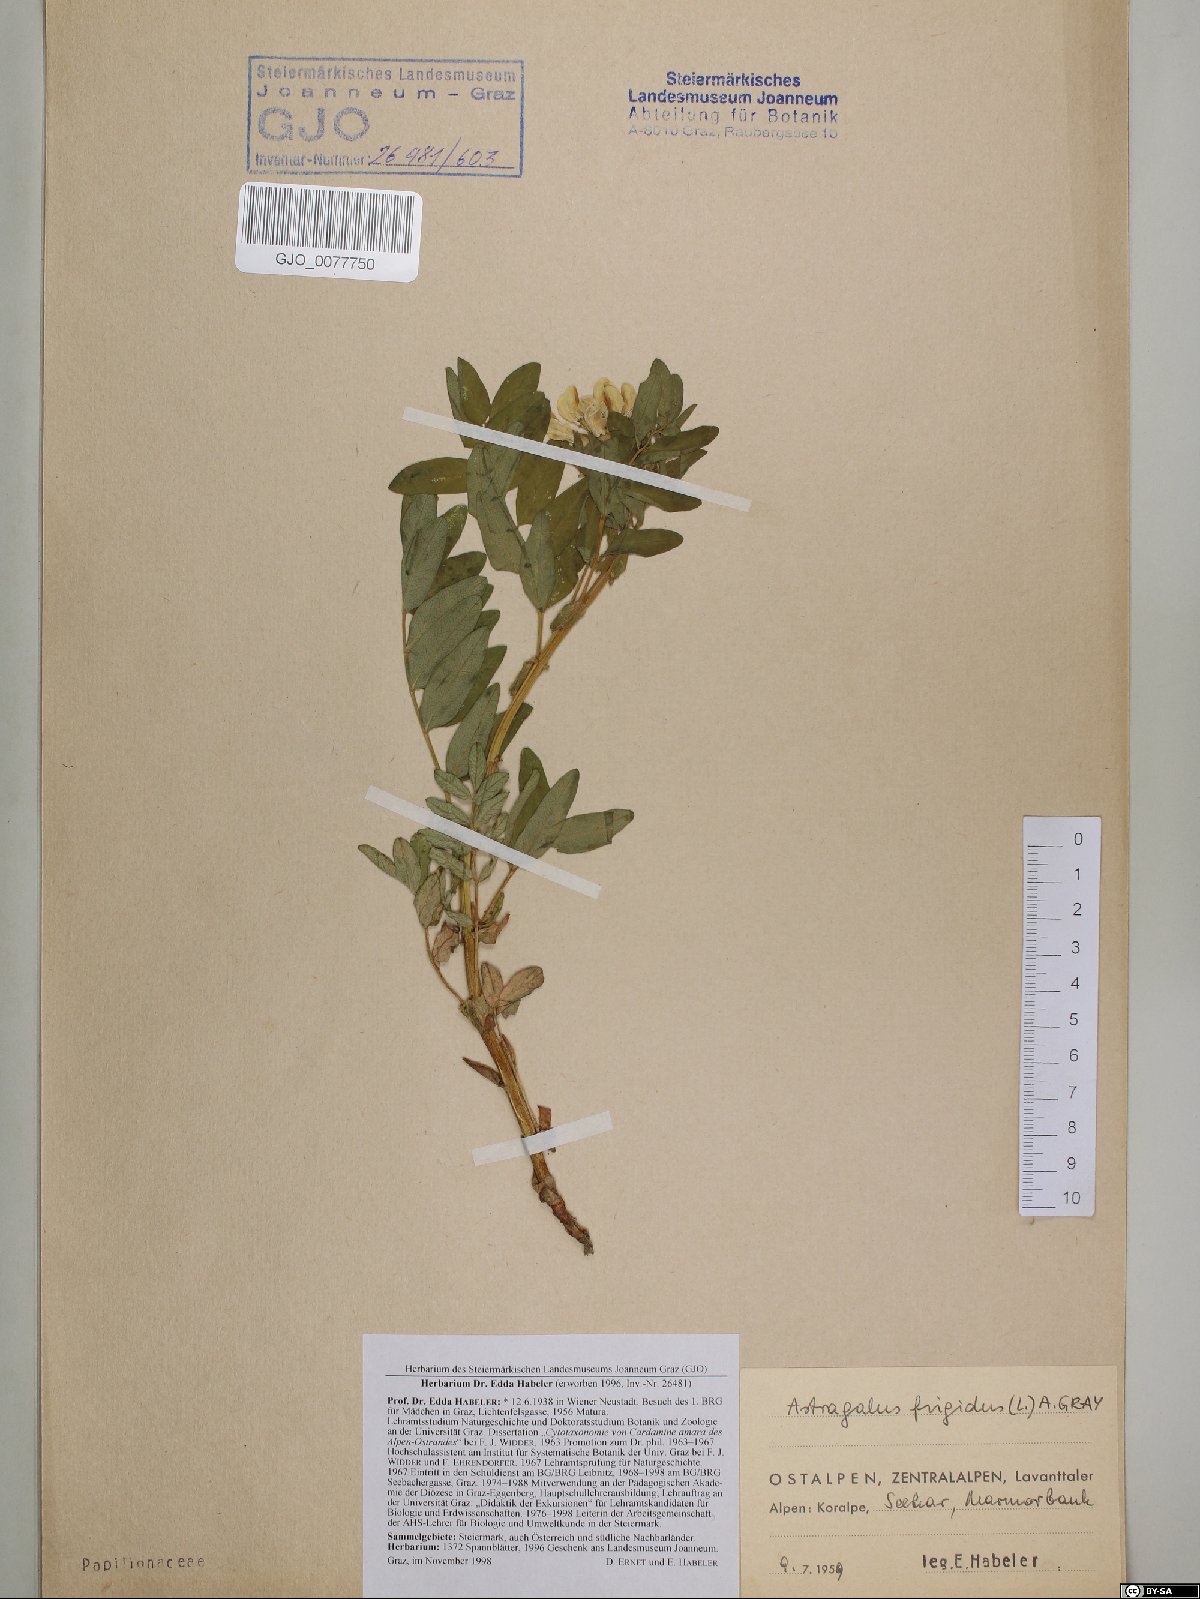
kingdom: Plantae
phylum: Tracheophyta
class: Magnoliopsida
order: Fabales
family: Fabaceae
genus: Astragalus
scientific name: Astragalus frigidus
